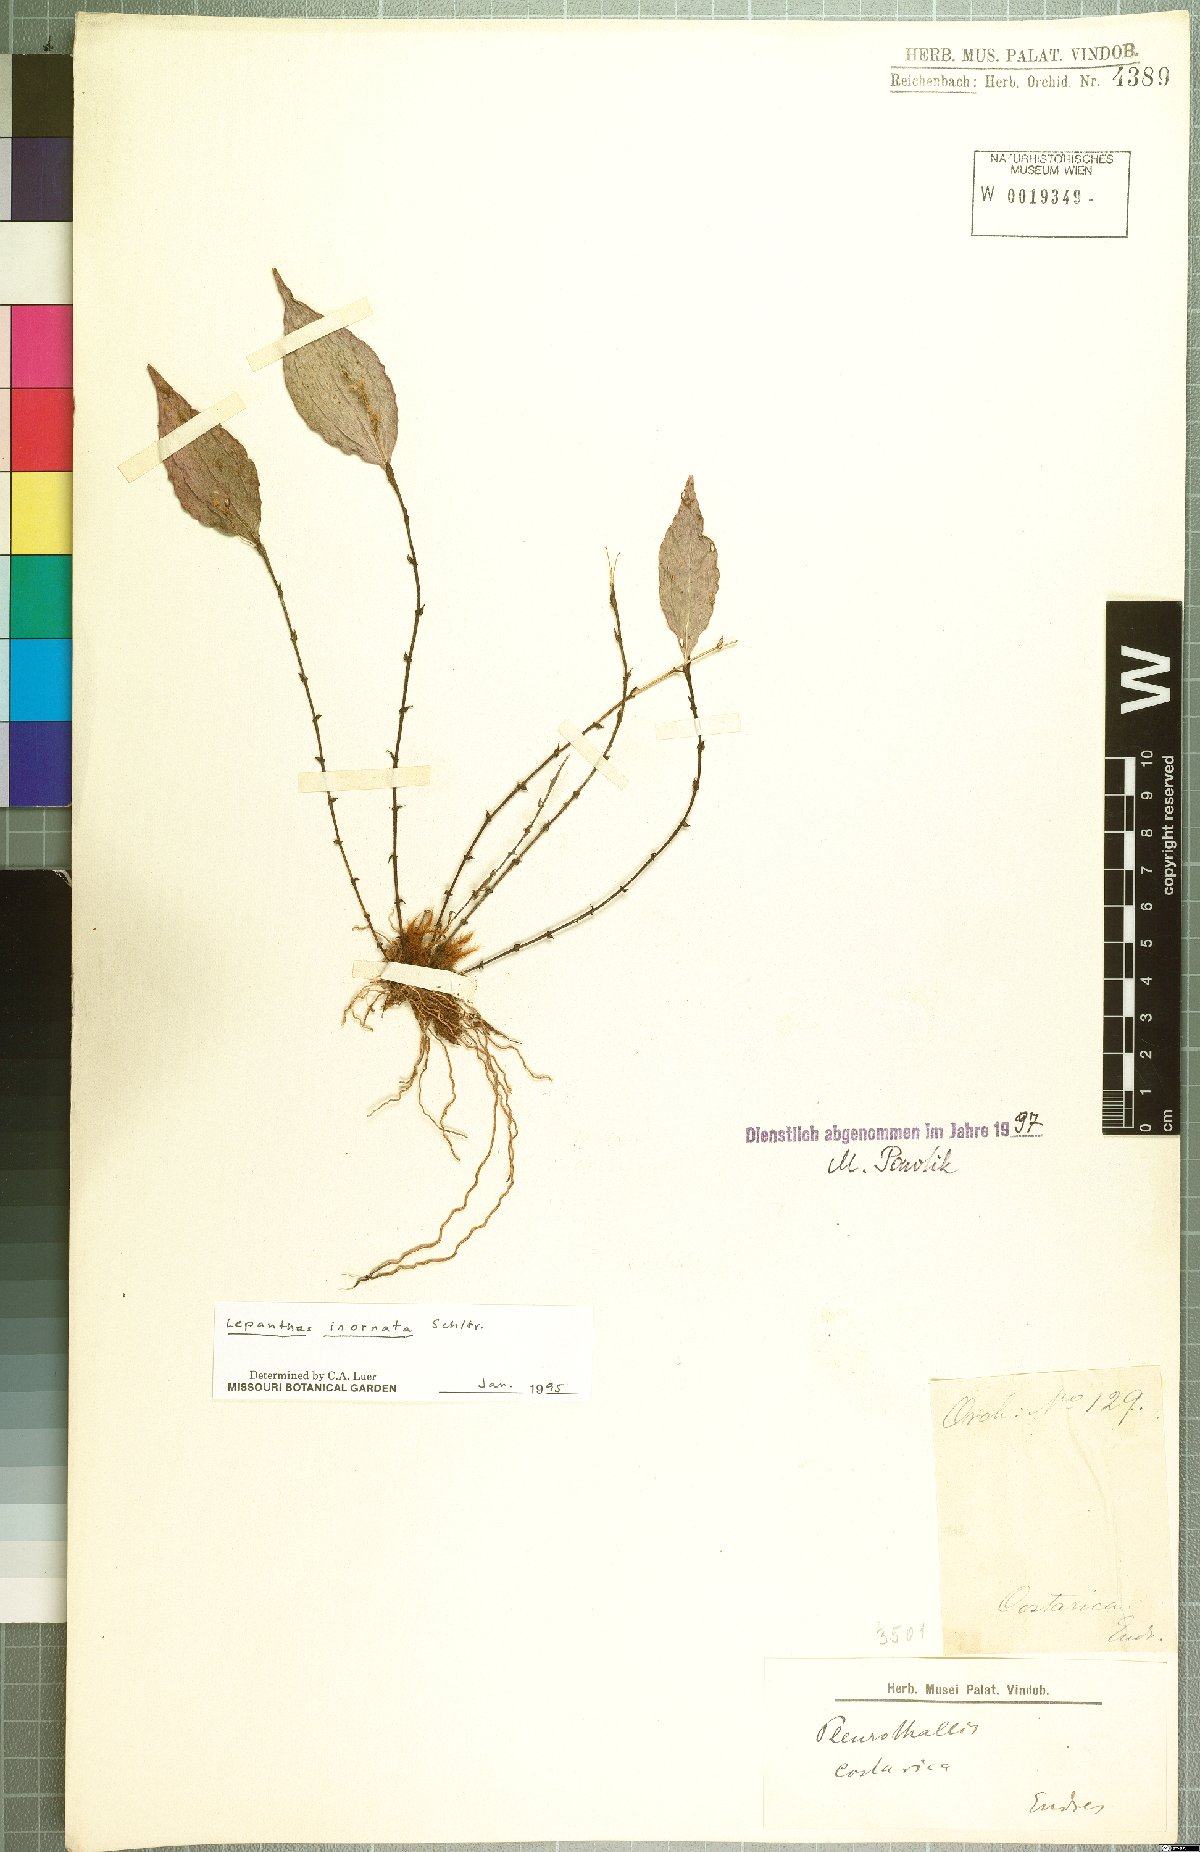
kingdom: Plantae
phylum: Tracheophyta
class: Liliopsida
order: Asparagales
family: Orchidaceae
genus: Lepanthes
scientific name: Lepanthes inornata
